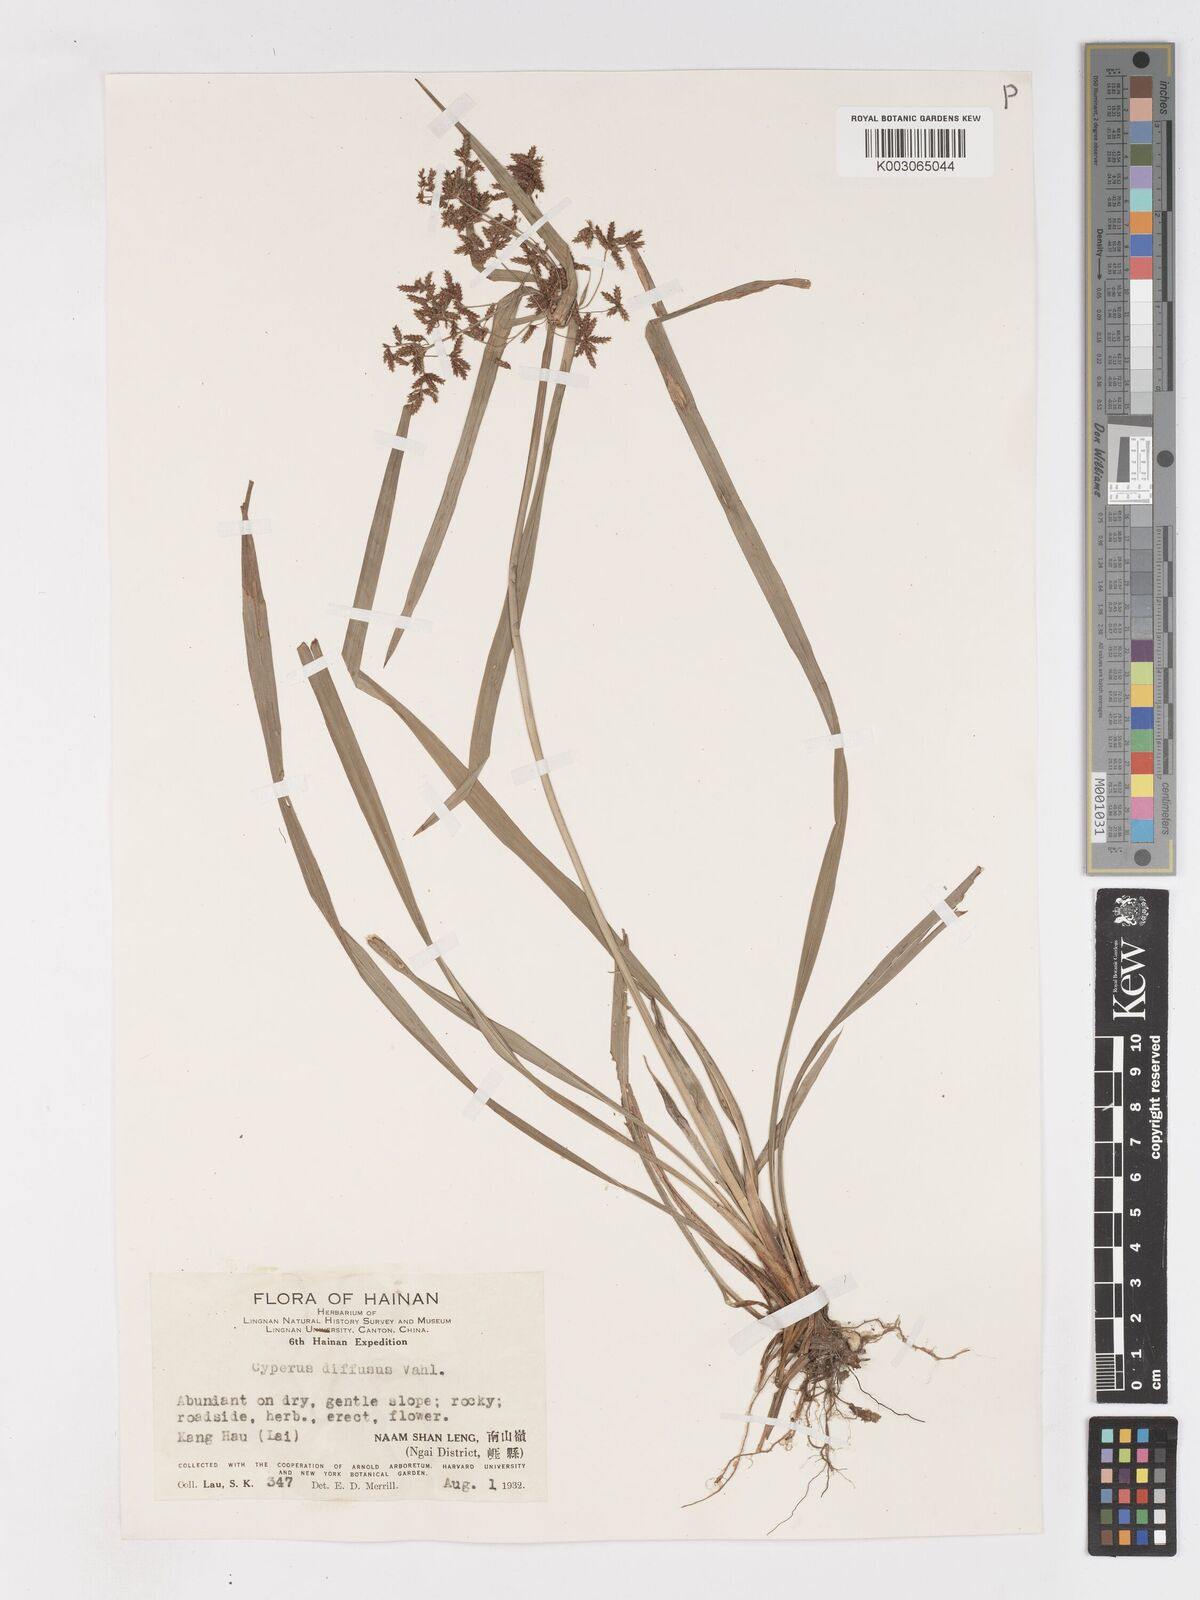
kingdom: Plantae
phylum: Tracheophyta
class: Liliopsida
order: Poales
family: Cyperaceae
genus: Cyperus
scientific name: Cyperus diffusus
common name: Dwarf umbrella grass
